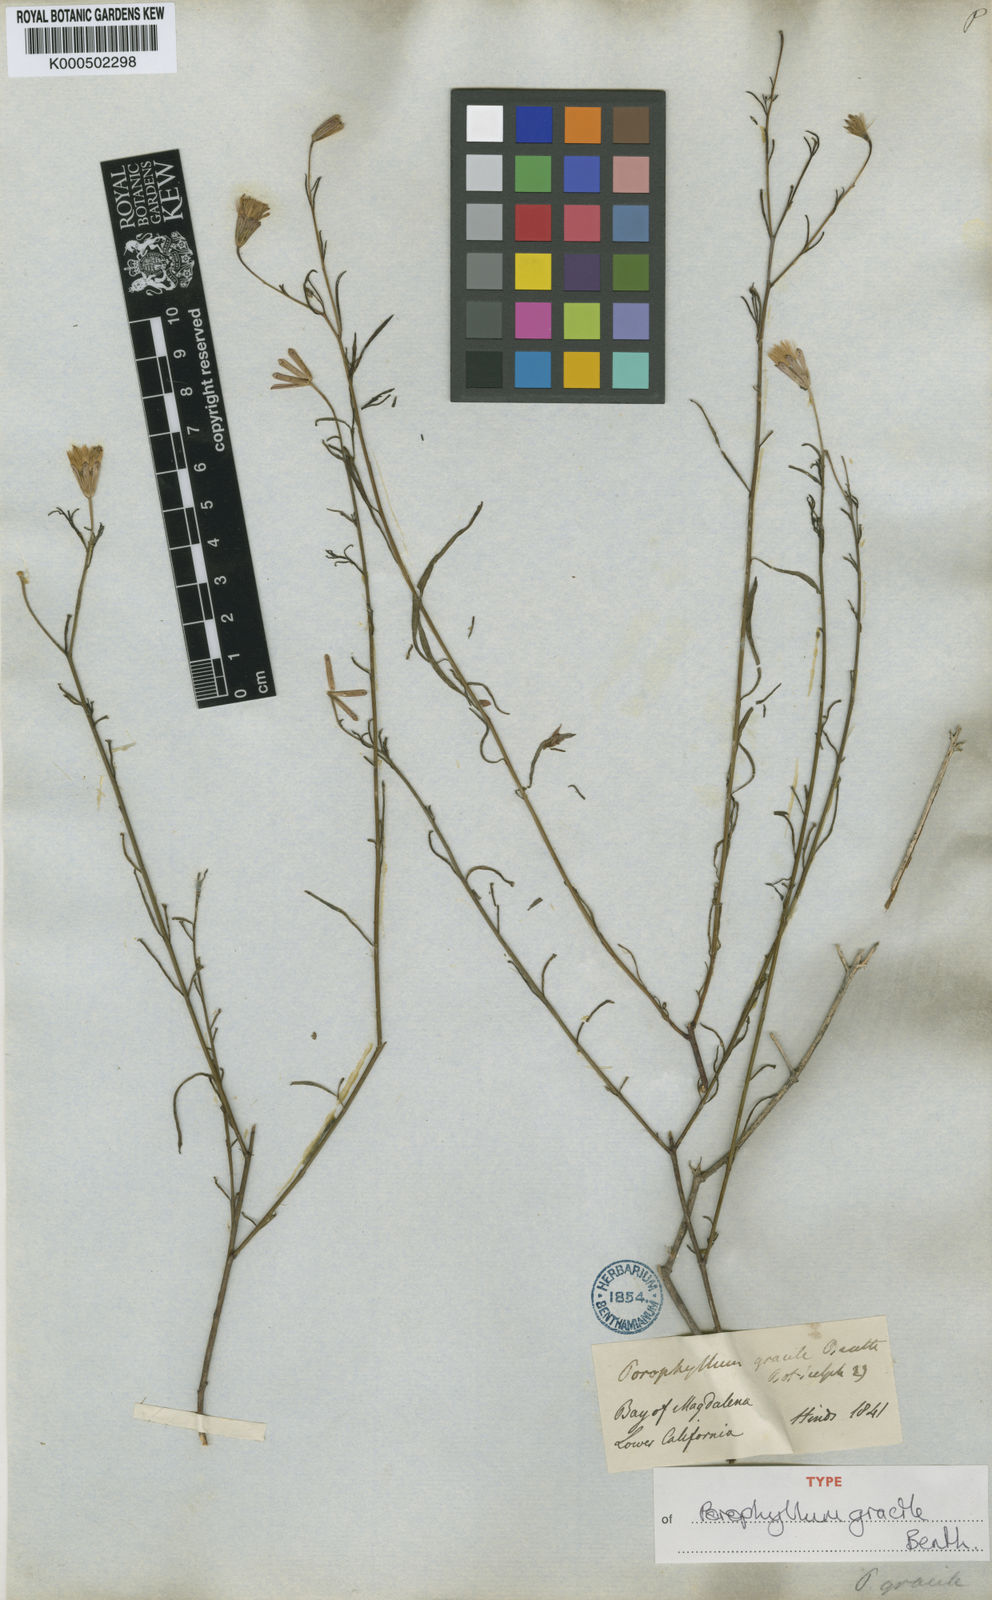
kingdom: Plantae
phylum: Tracheophyta
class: Magnoliopsida
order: Asterales
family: Asteraceae
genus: Porophyllum
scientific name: Porophyllum gracile
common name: Odora
